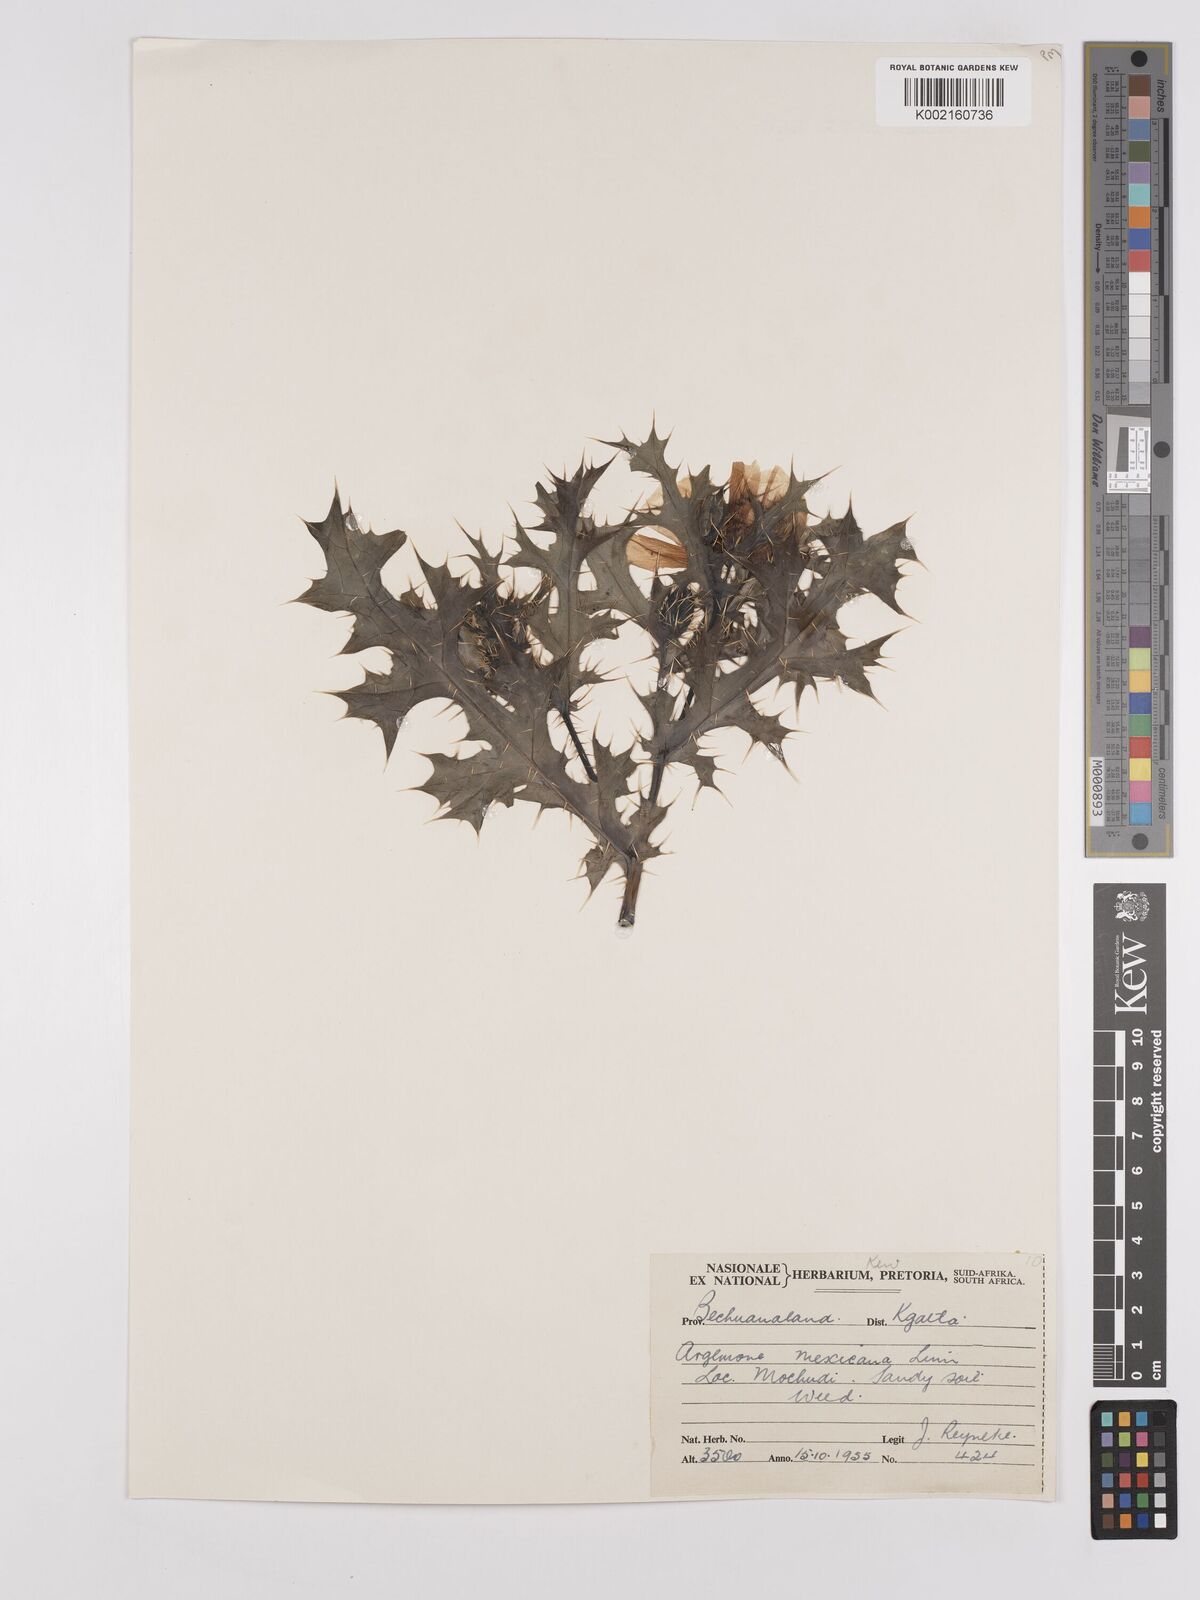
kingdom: Plantae
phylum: Tracheophyta
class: Magnoliopsida
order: Ranunculales
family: Papaveraceae
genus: Argemone
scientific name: Argemone mexicana
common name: Mexican poppy
